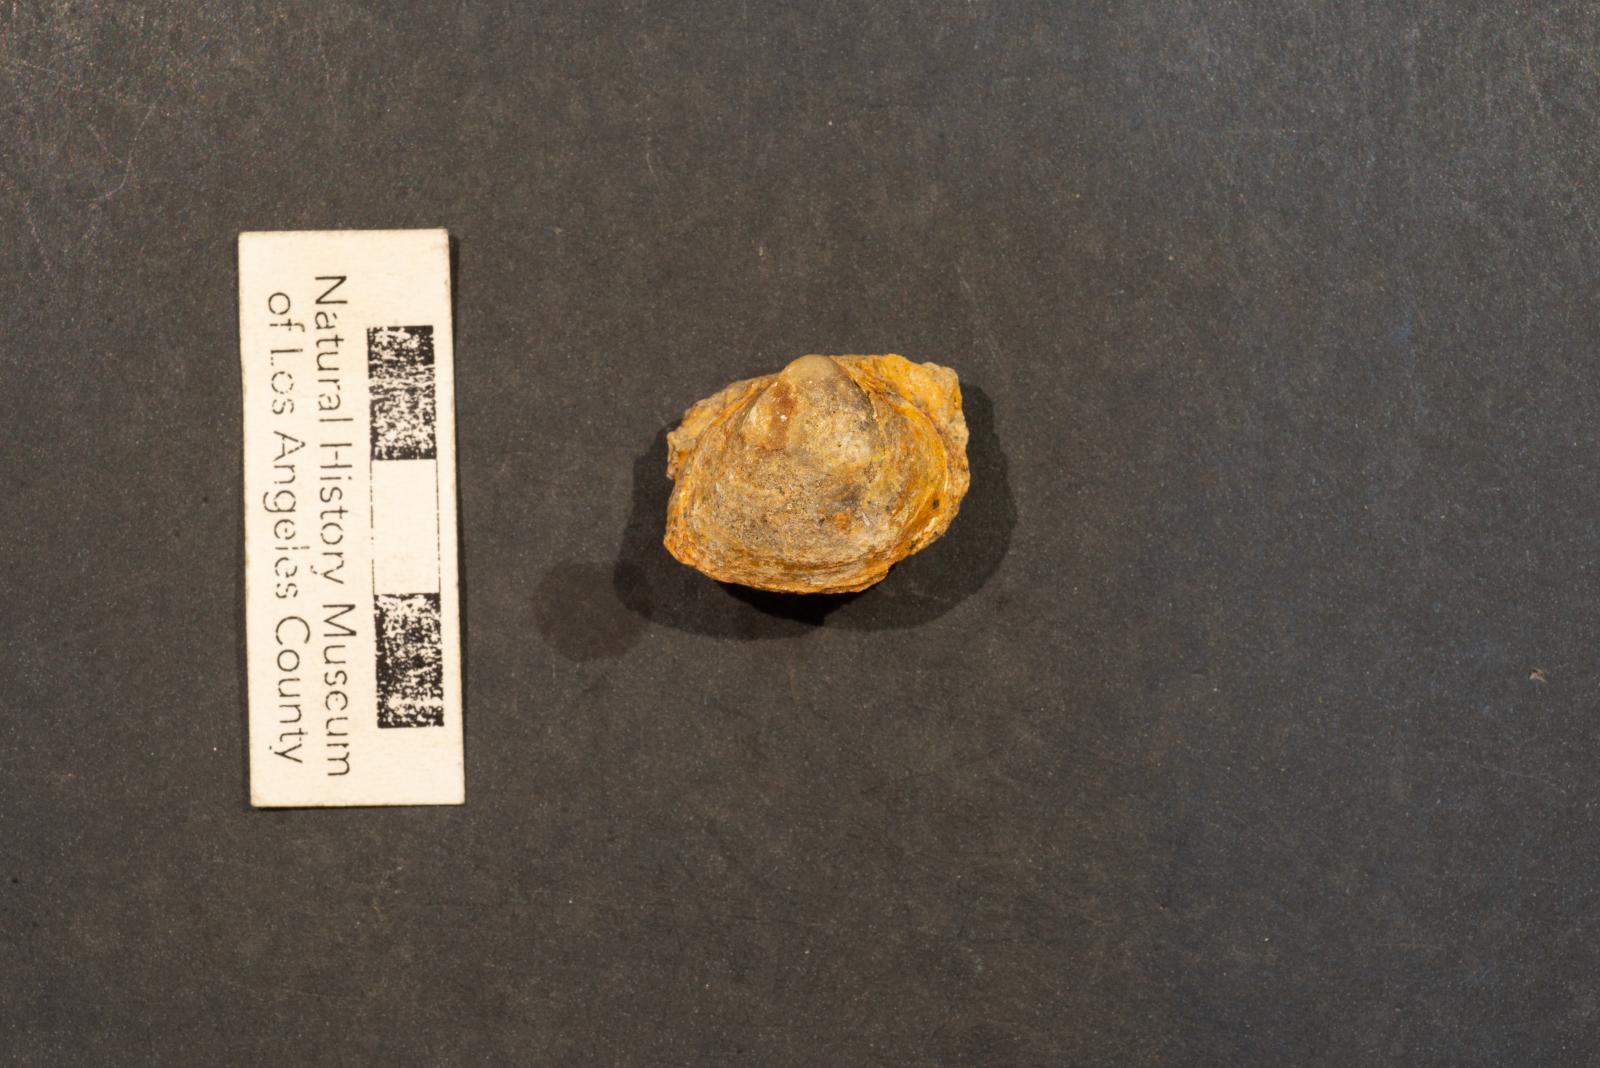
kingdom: Animalia
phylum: Mollusca
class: Bivalvia
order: Cardiida
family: Cardiidae
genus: Protocardia
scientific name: Protocardia Cardium placerensis
